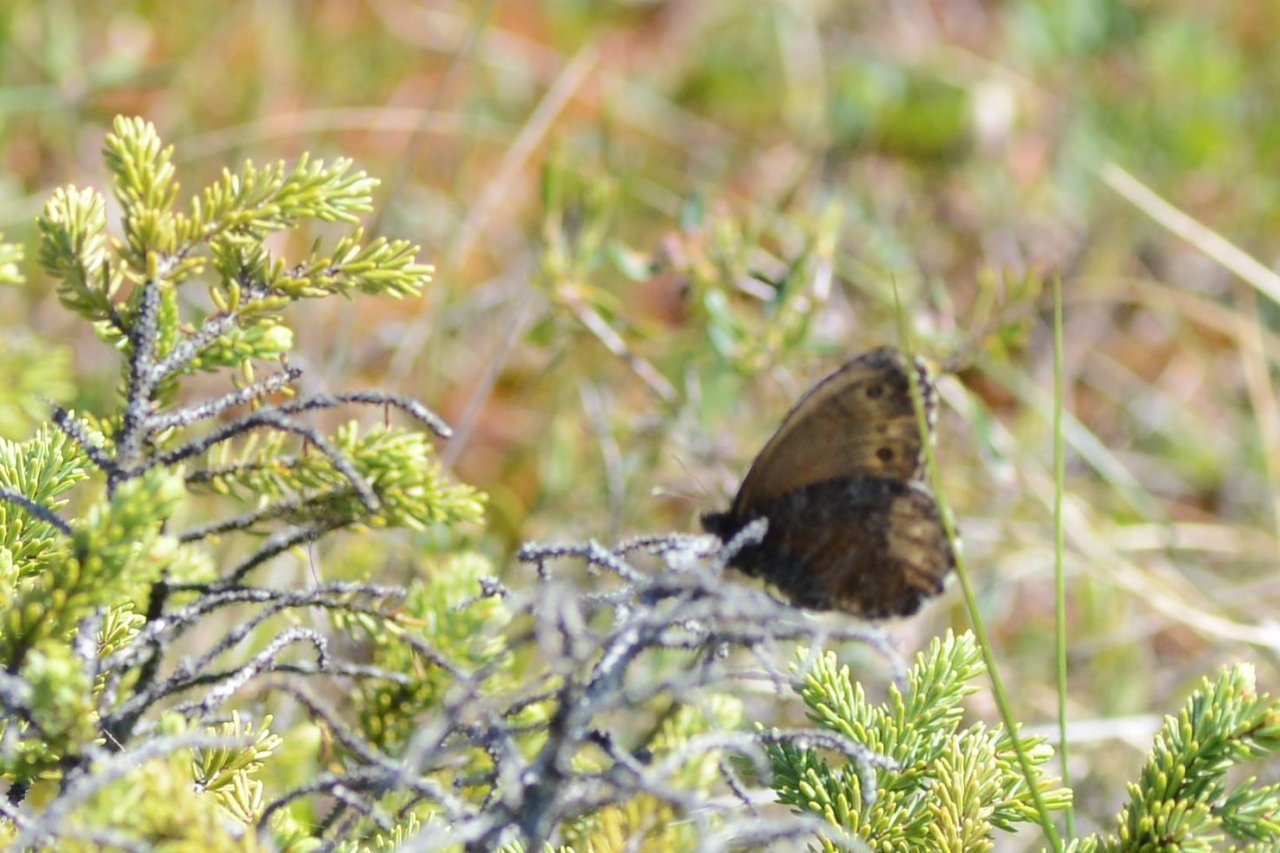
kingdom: Animalia
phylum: Arthropoda
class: Insecta
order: Lepidoptera
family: Nymphalidae
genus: Oeneis
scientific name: Oeneis jutta
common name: Jutta Arctic
